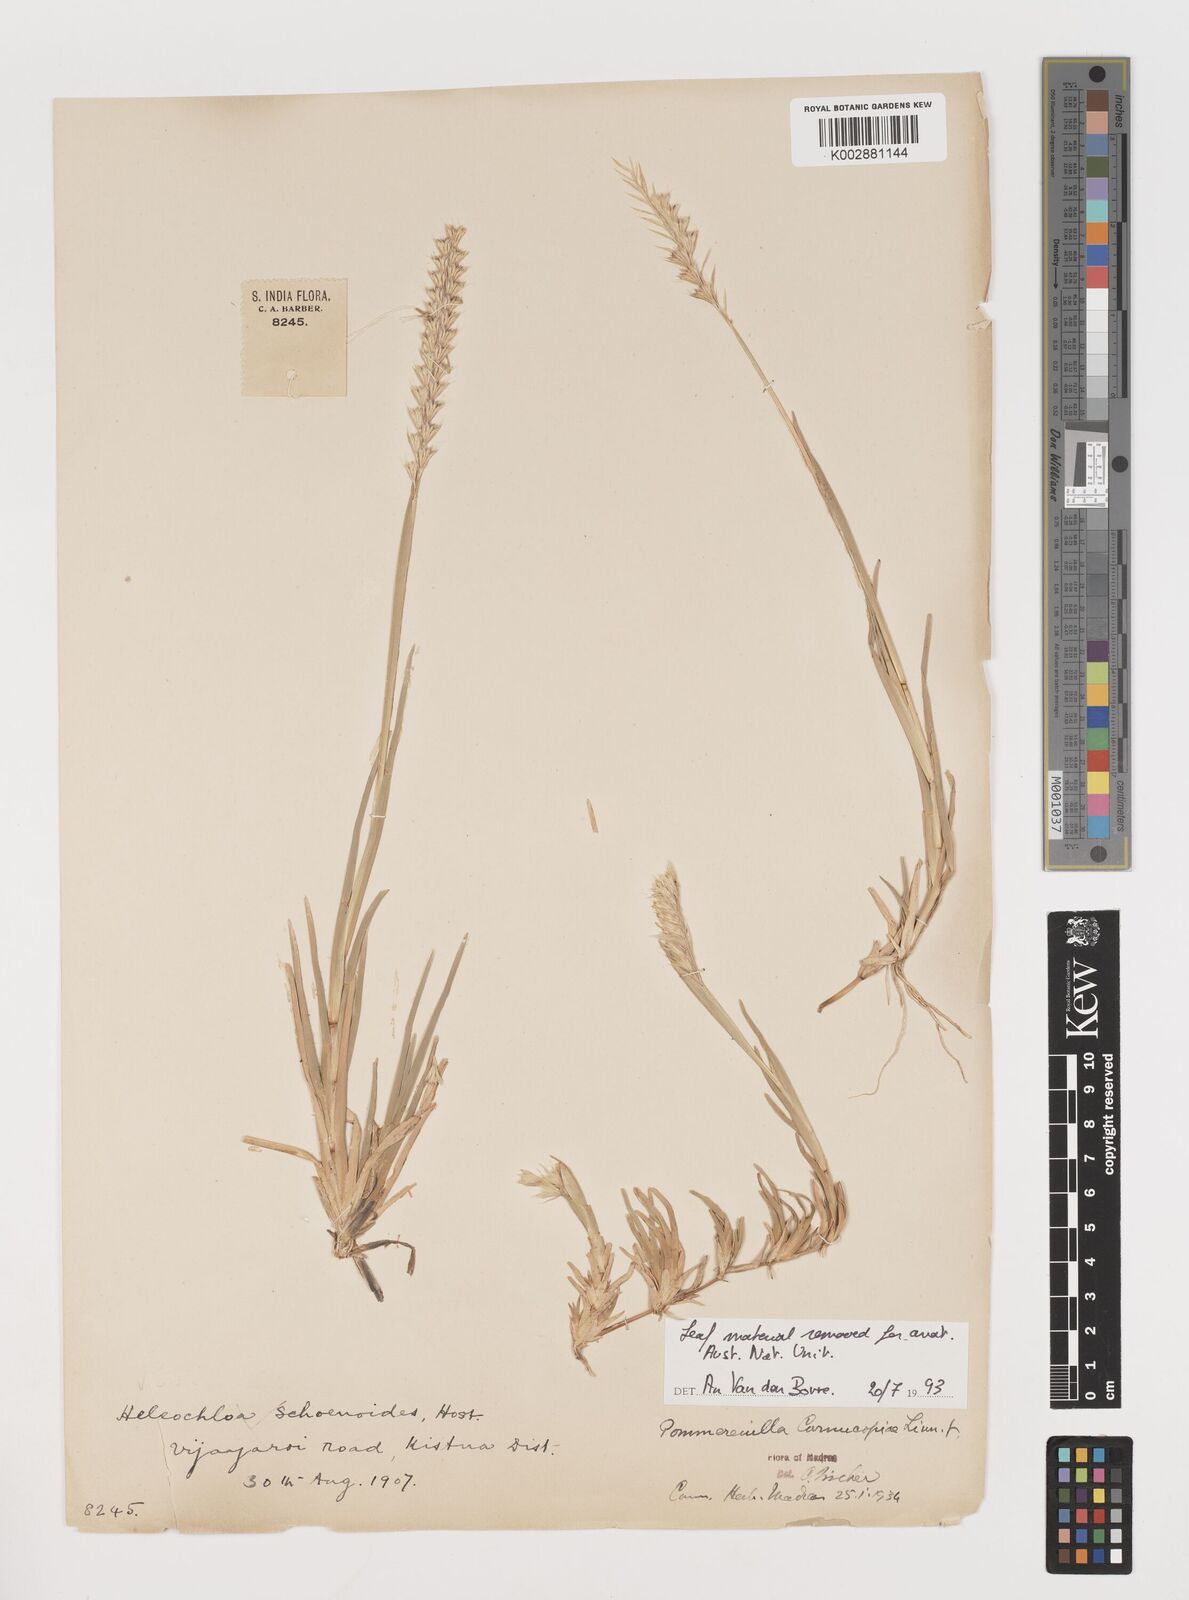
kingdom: Plantae
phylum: Tracheophyta
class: Liliopsida
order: Poales
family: Poaceae
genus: Pommereulla
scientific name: Pommereulla cornucopiae
